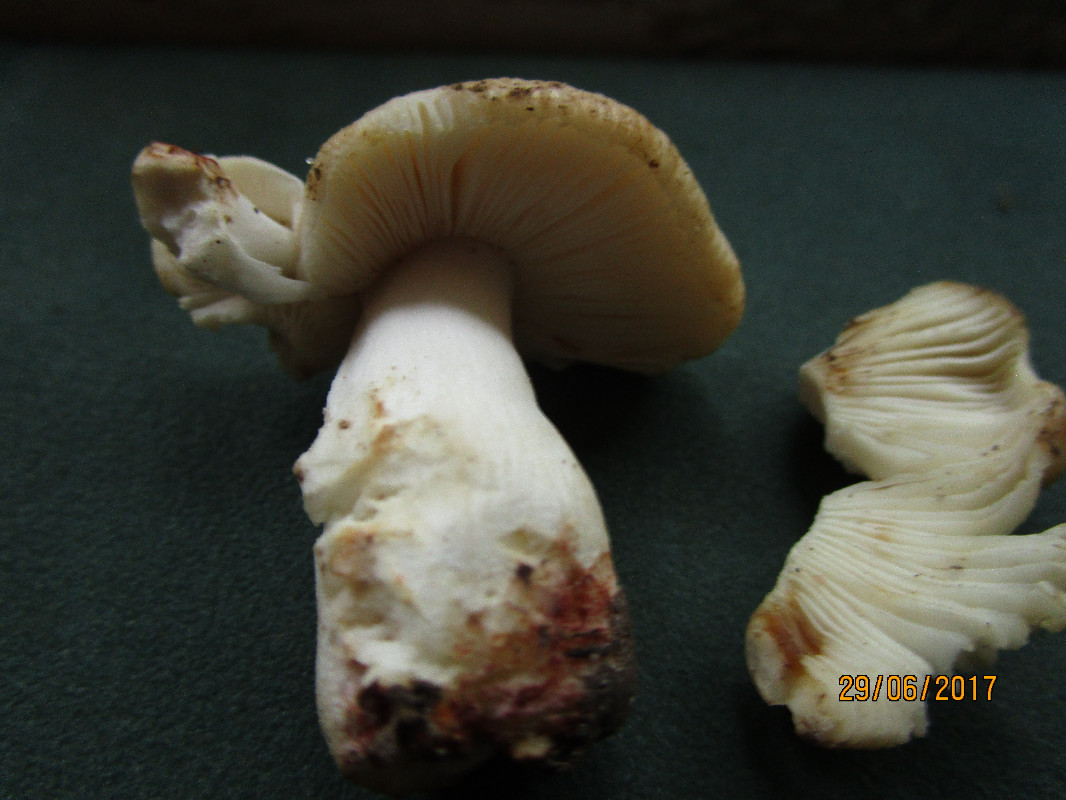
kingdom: Fungi
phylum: Basidiomycota
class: Agaricomycetes
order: Russulales
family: Russulaceae
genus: Russula
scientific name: Russula
